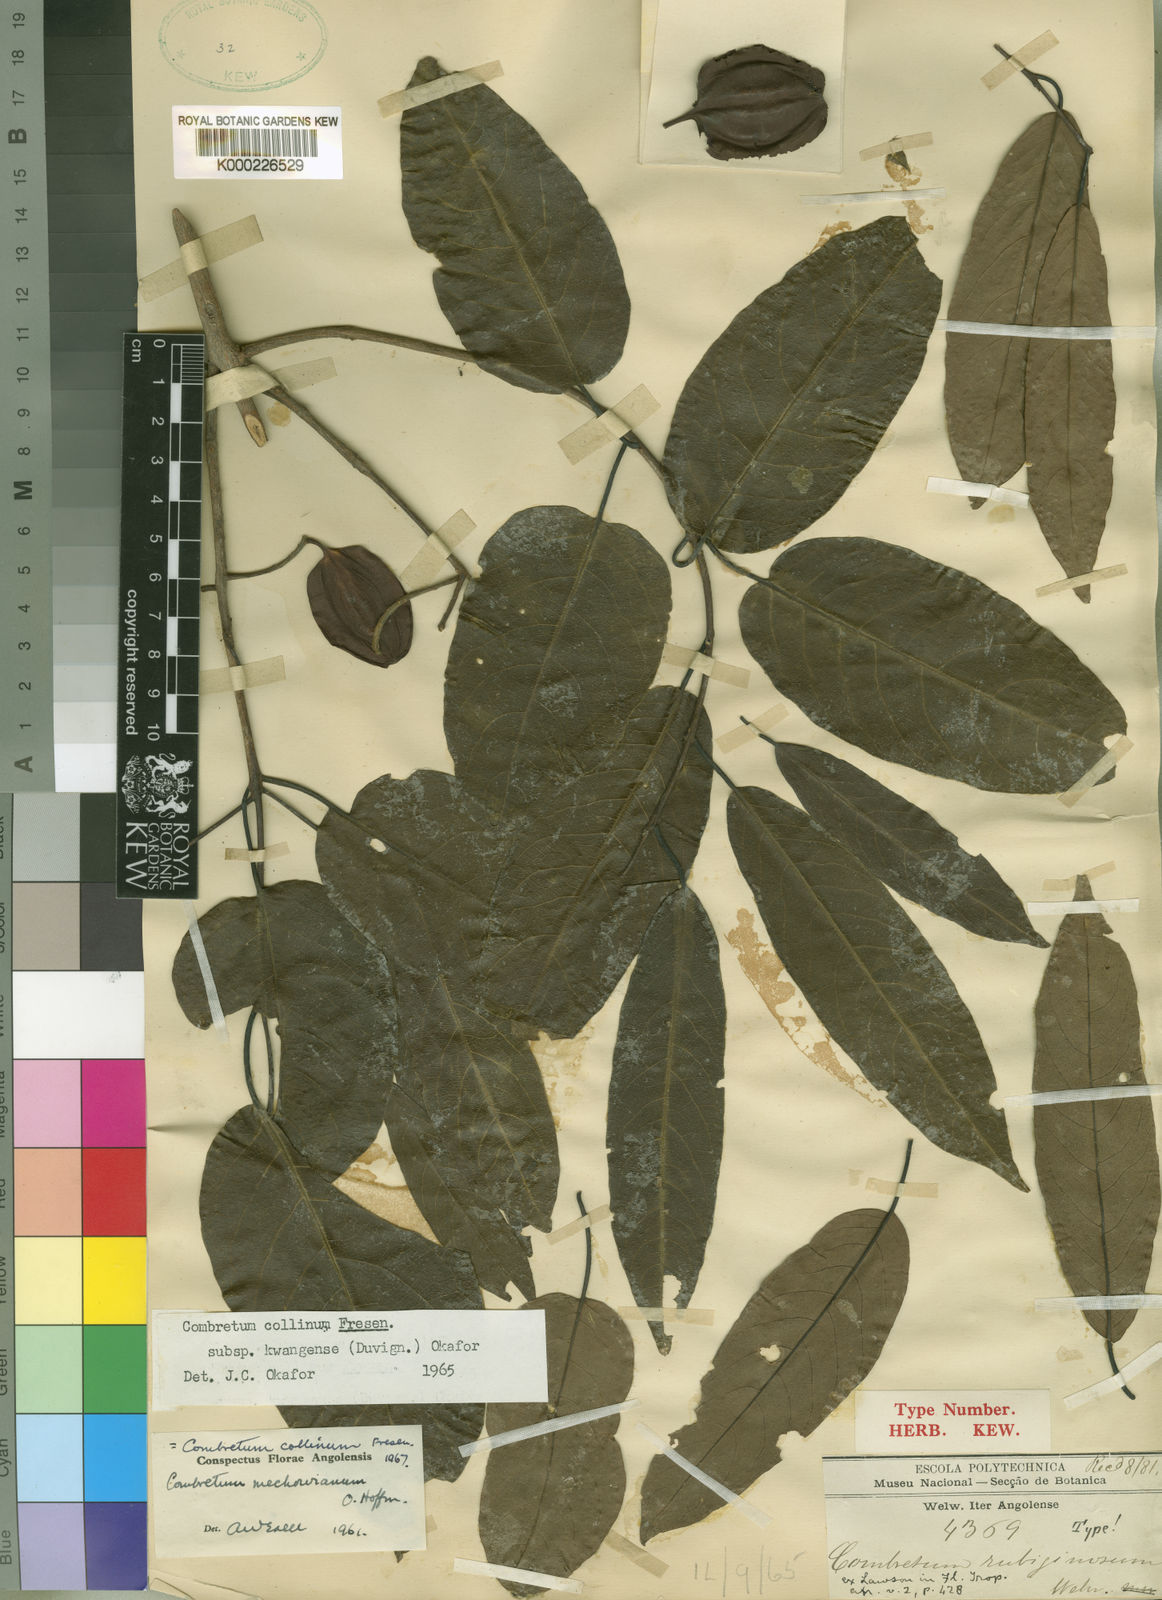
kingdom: Plantae
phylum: Tracheophyta
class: Magnoliopsida
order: Myrtales
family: Combretaceae
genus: Combretum
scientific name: Combretum collinum
